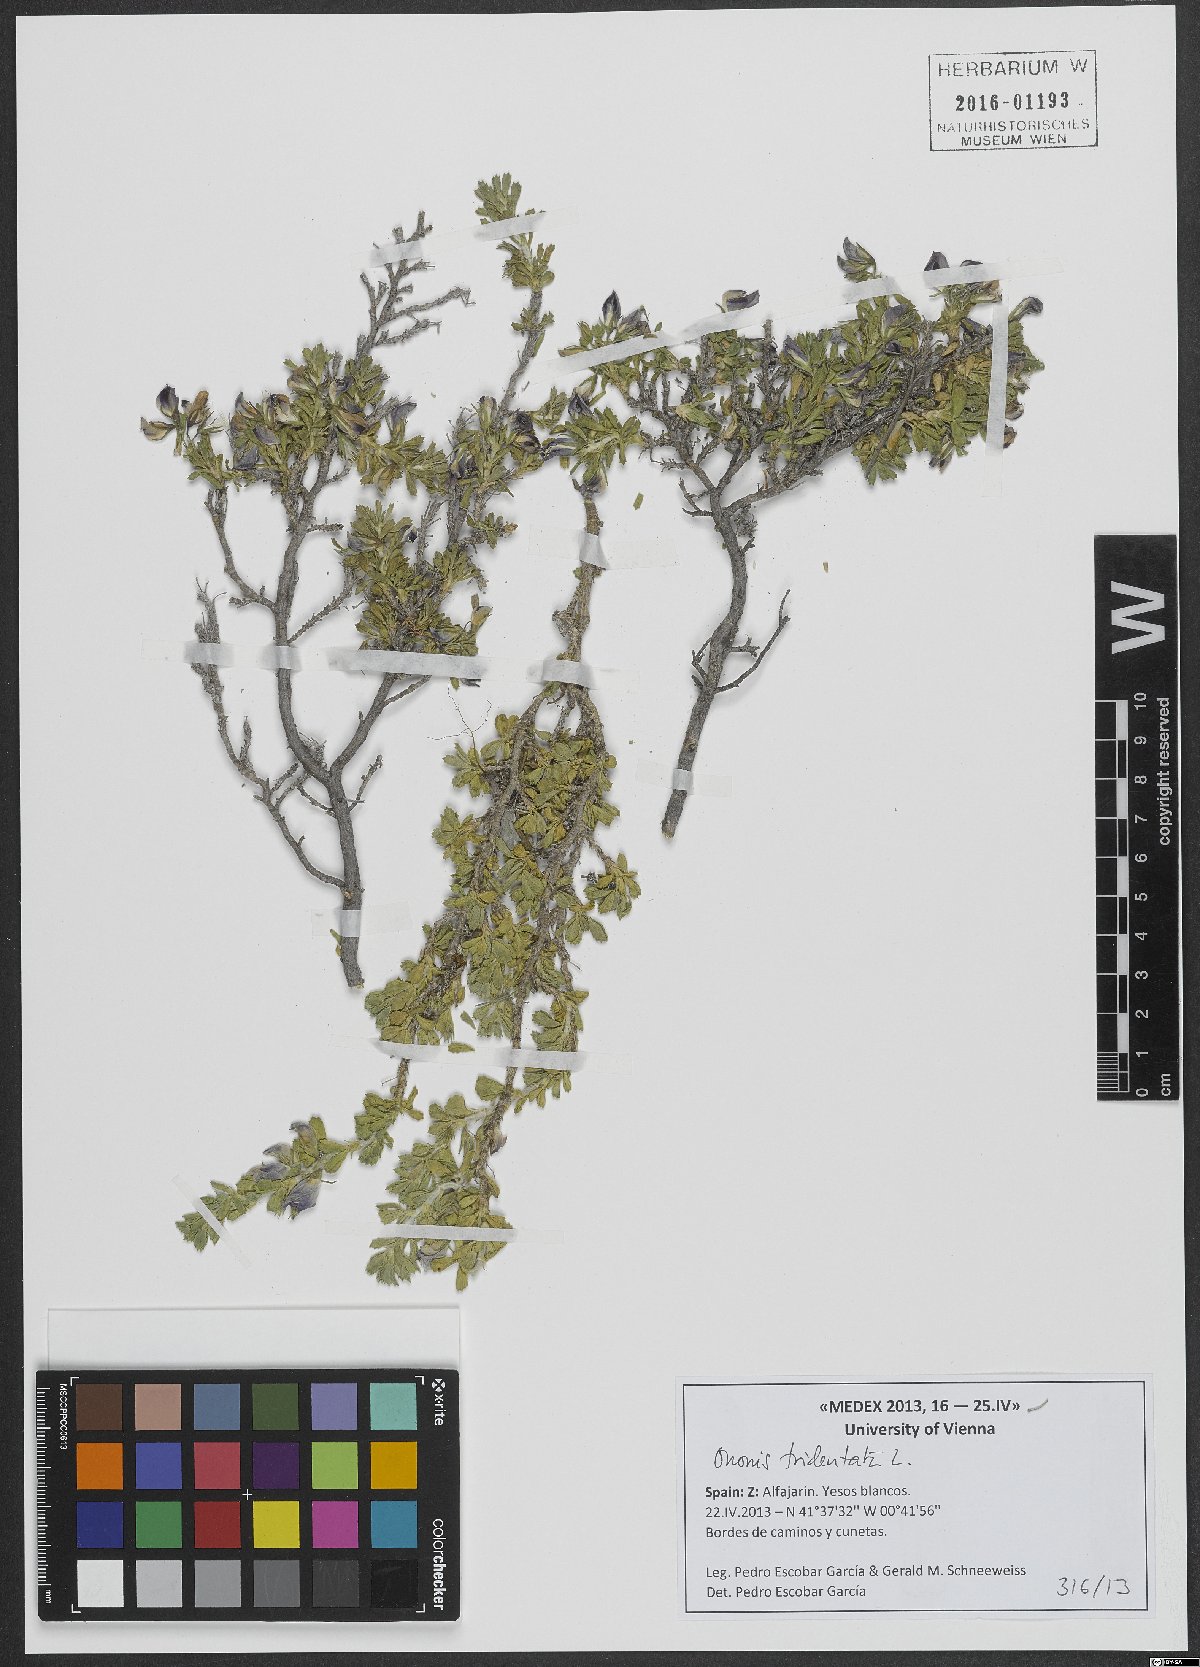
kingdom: Plantae
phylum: Tracheophyta
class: Magnoliopsida
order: Fabales
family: Fabaceae
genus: Ononis
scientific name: Ononis tridentata
